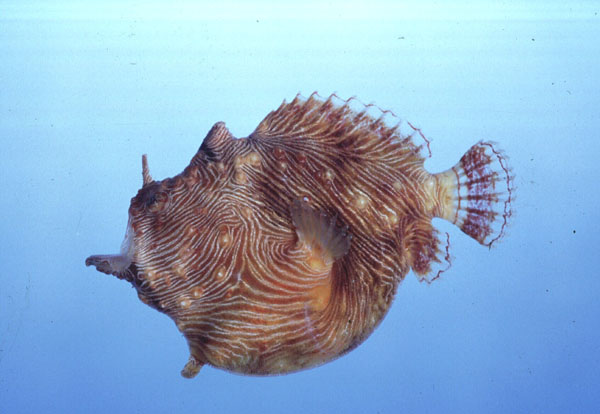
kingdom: Animalia
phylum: Chordata
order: Lophiiformes
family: Antennariidae
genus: Antennatus
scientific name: Antennatus linearis
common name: Lined frogfish
